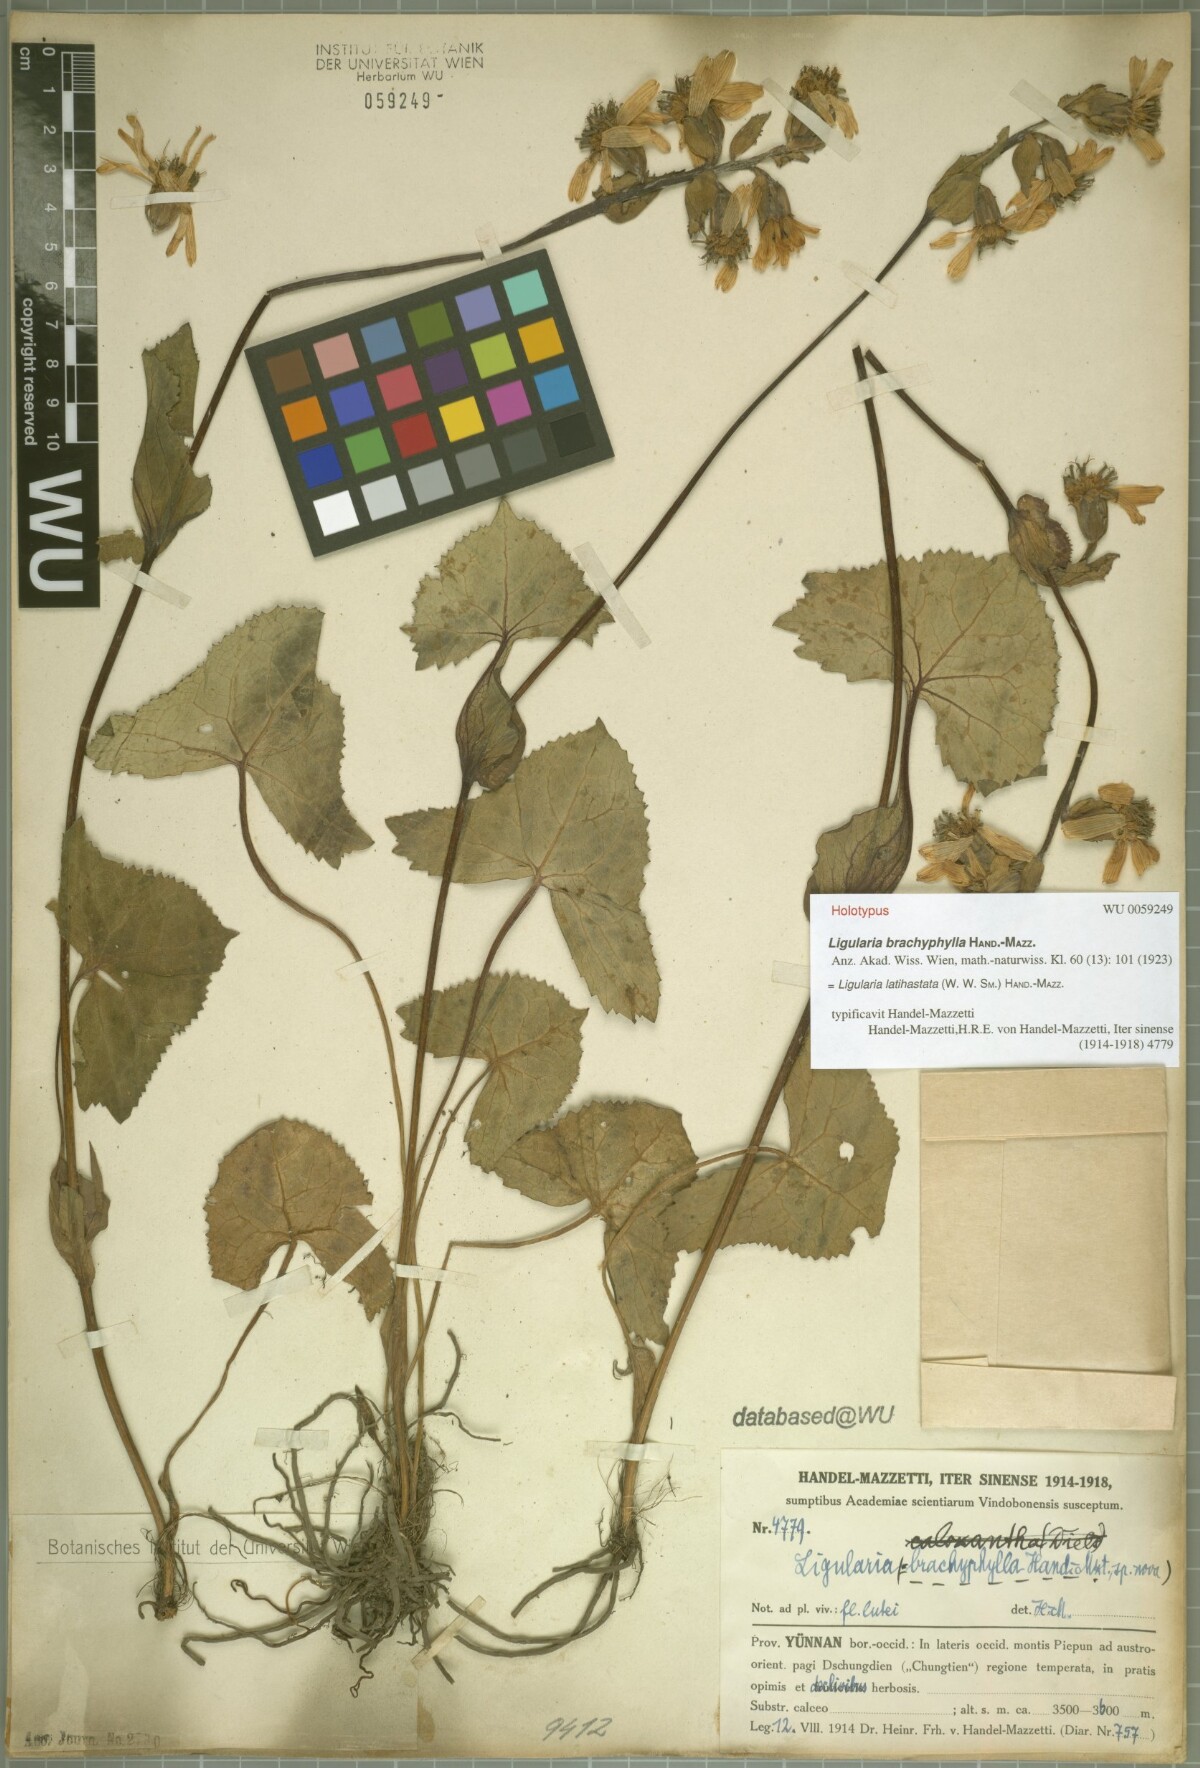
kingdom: Plantae
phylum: Tracheophyta
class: Magnoliopsida
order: Asterales
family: Asteraceae
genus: Ligularia
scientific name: Ligularia latihastata
